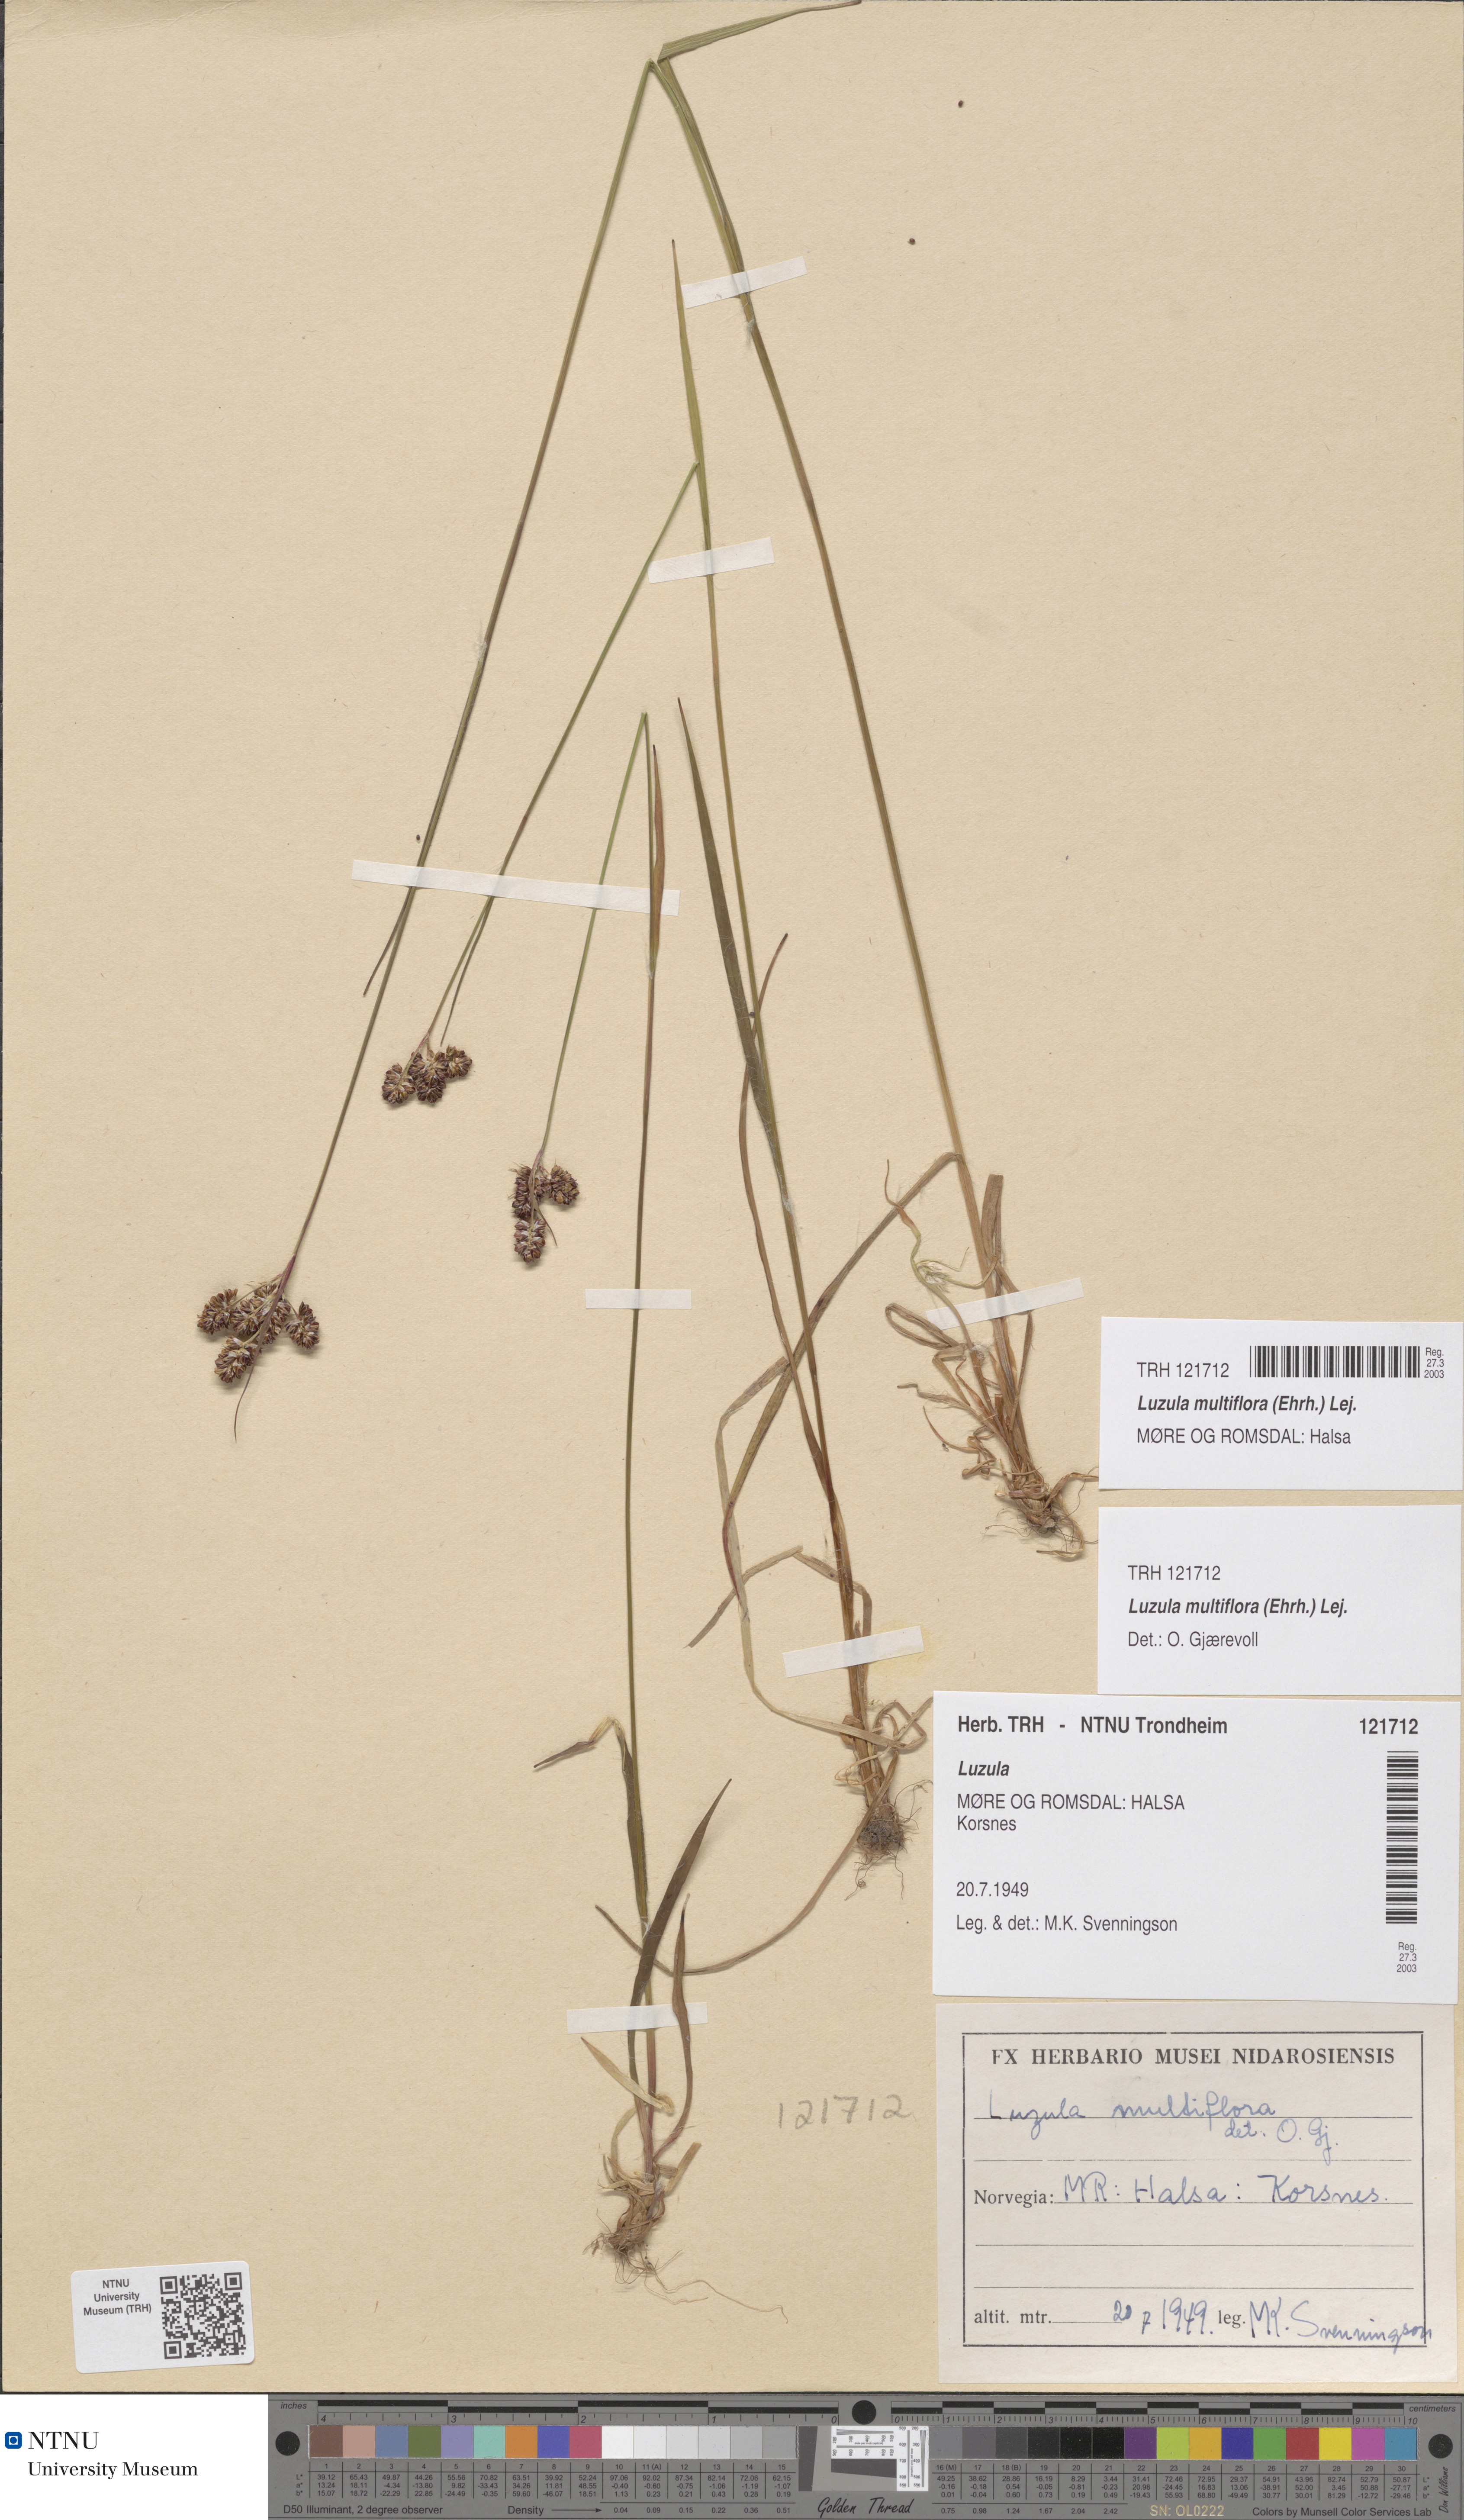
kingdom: Plantae
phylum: Tracheophyta
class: Liliopsida
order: Poales
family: Juncaceae
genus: Luzula
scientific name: Luzula multiflora
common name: Heath wood-rush
